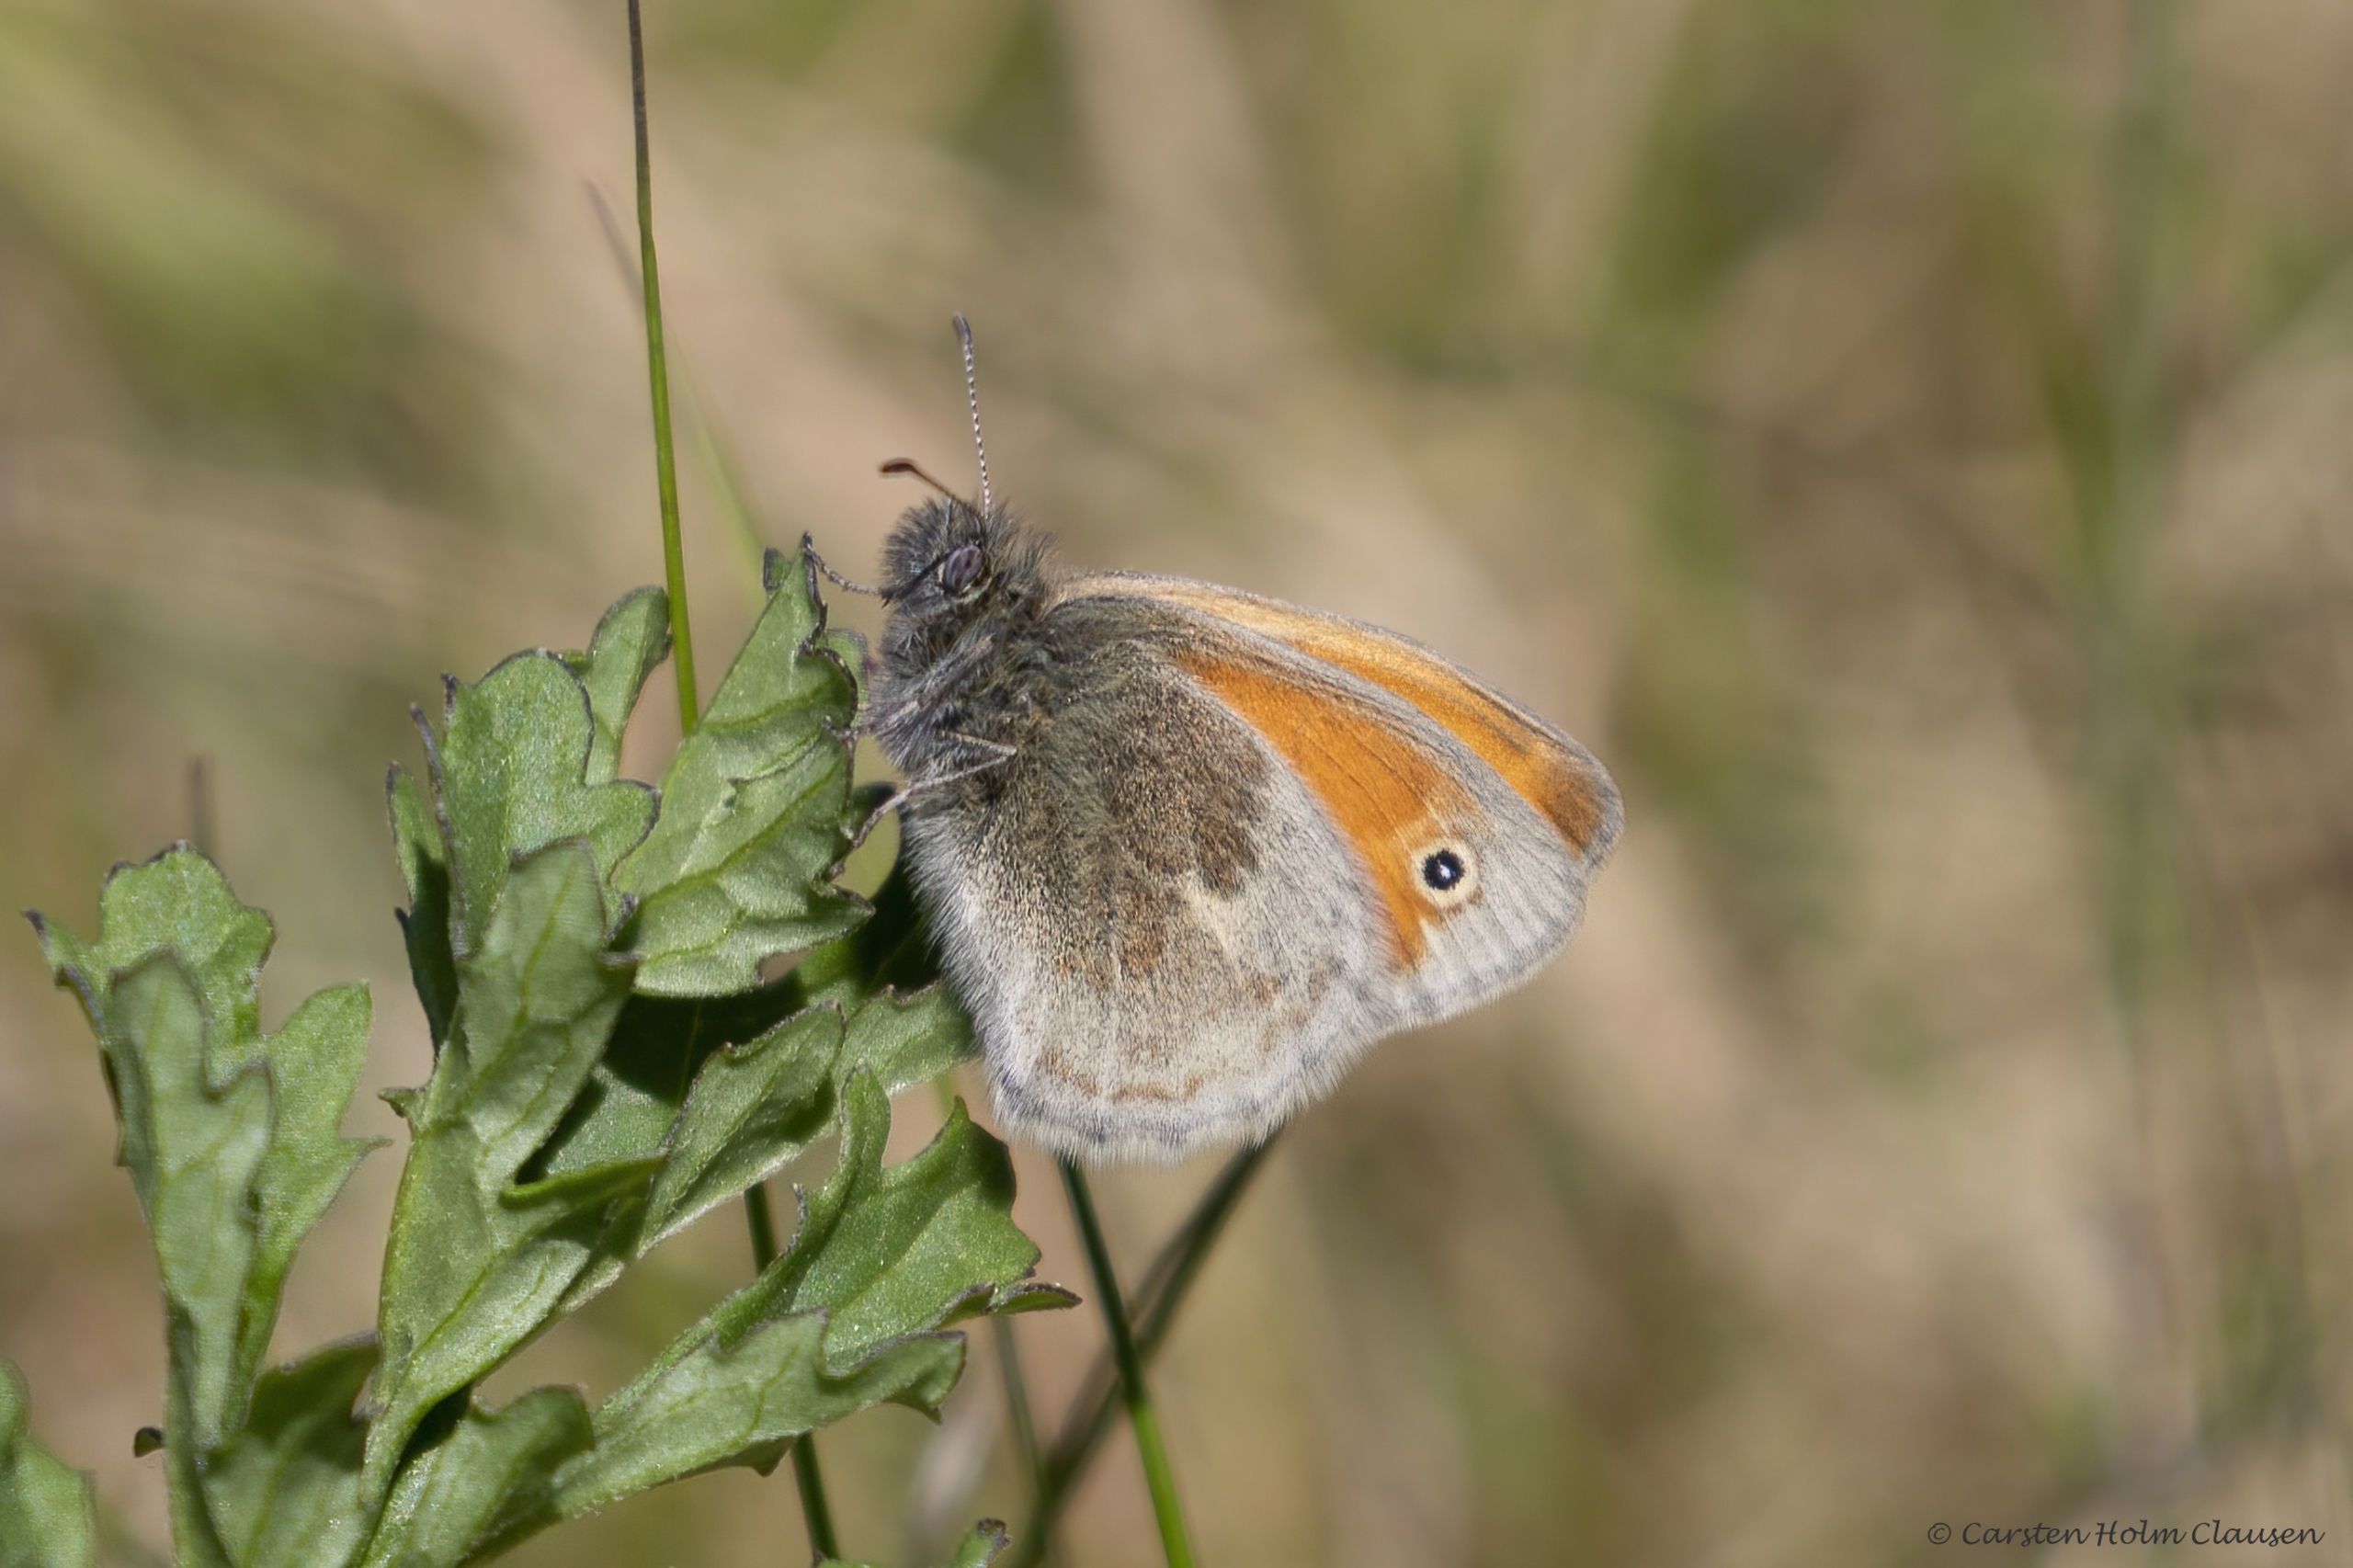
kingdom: Animalia
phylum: Arthropoda
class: Insecta
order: Lepidoptera
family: Nymphalidae
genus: Coenonympha
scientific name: Coenonympha pamphilus
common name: Okkergul randøje
